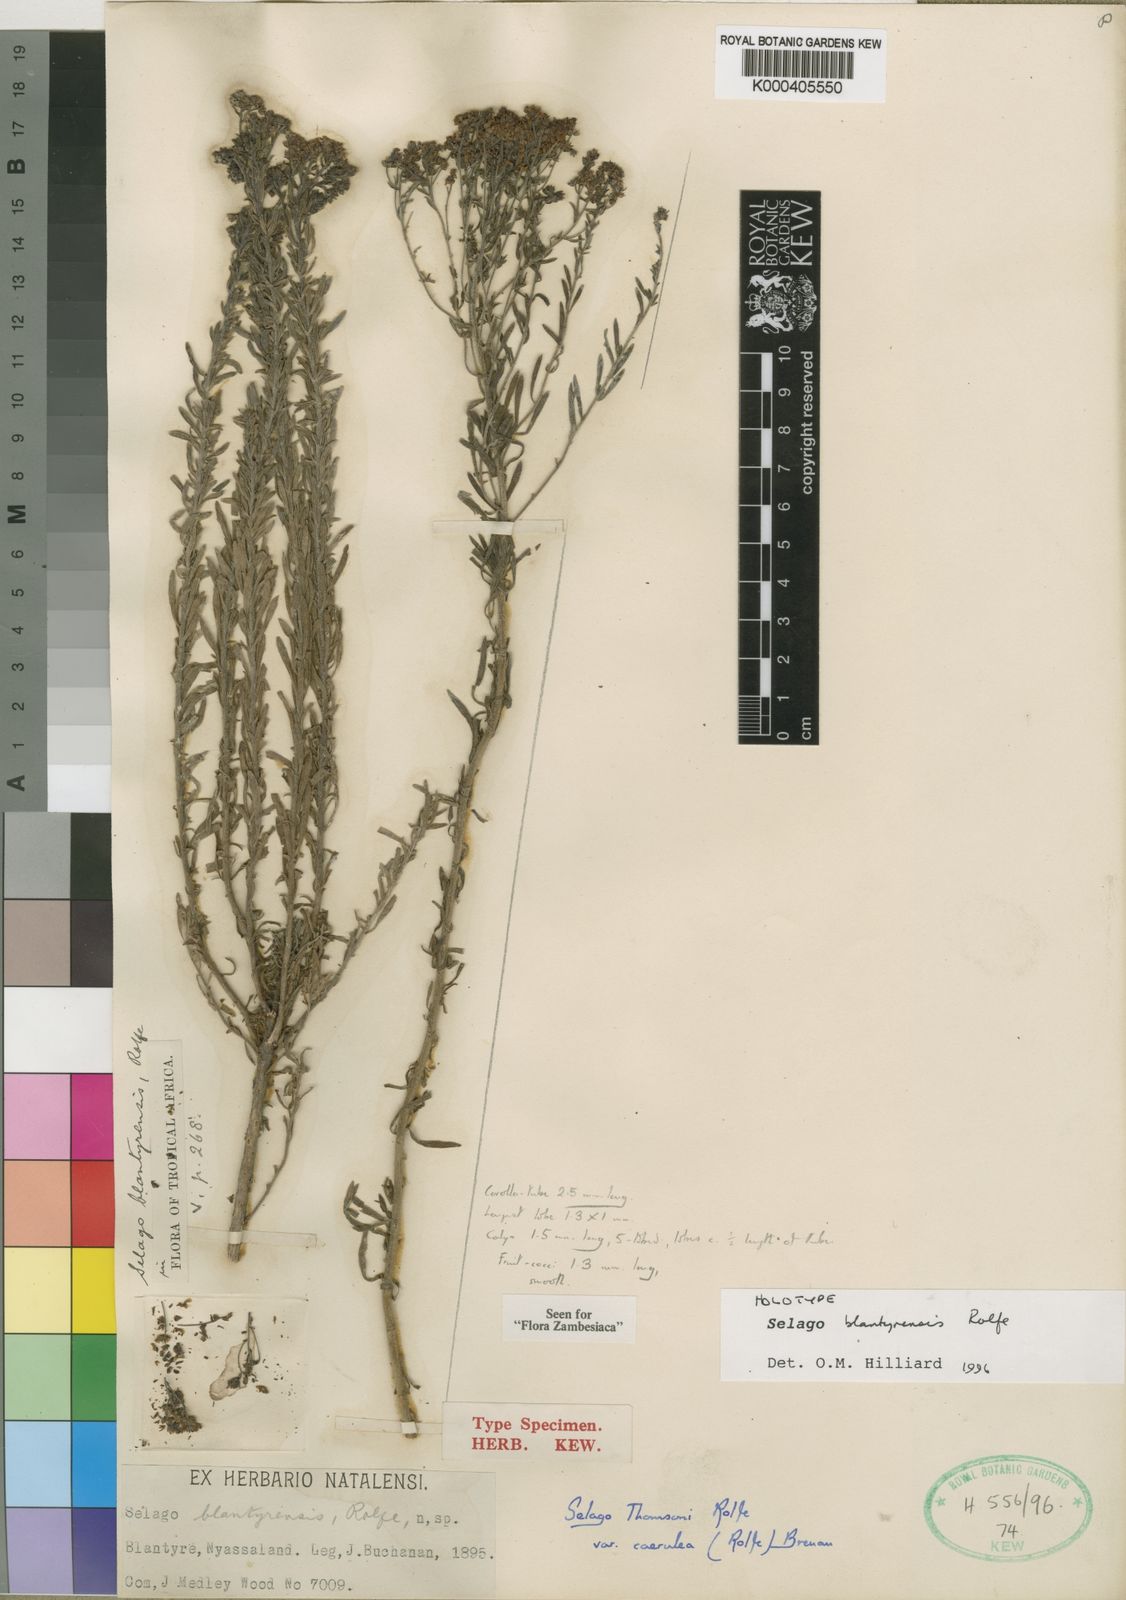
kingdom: Plantae
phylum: Tracheophyta
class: Magnoliopsida
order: Lamiales
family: Scrophulariaceae
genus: Selago
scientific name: Selago blantyrensis
